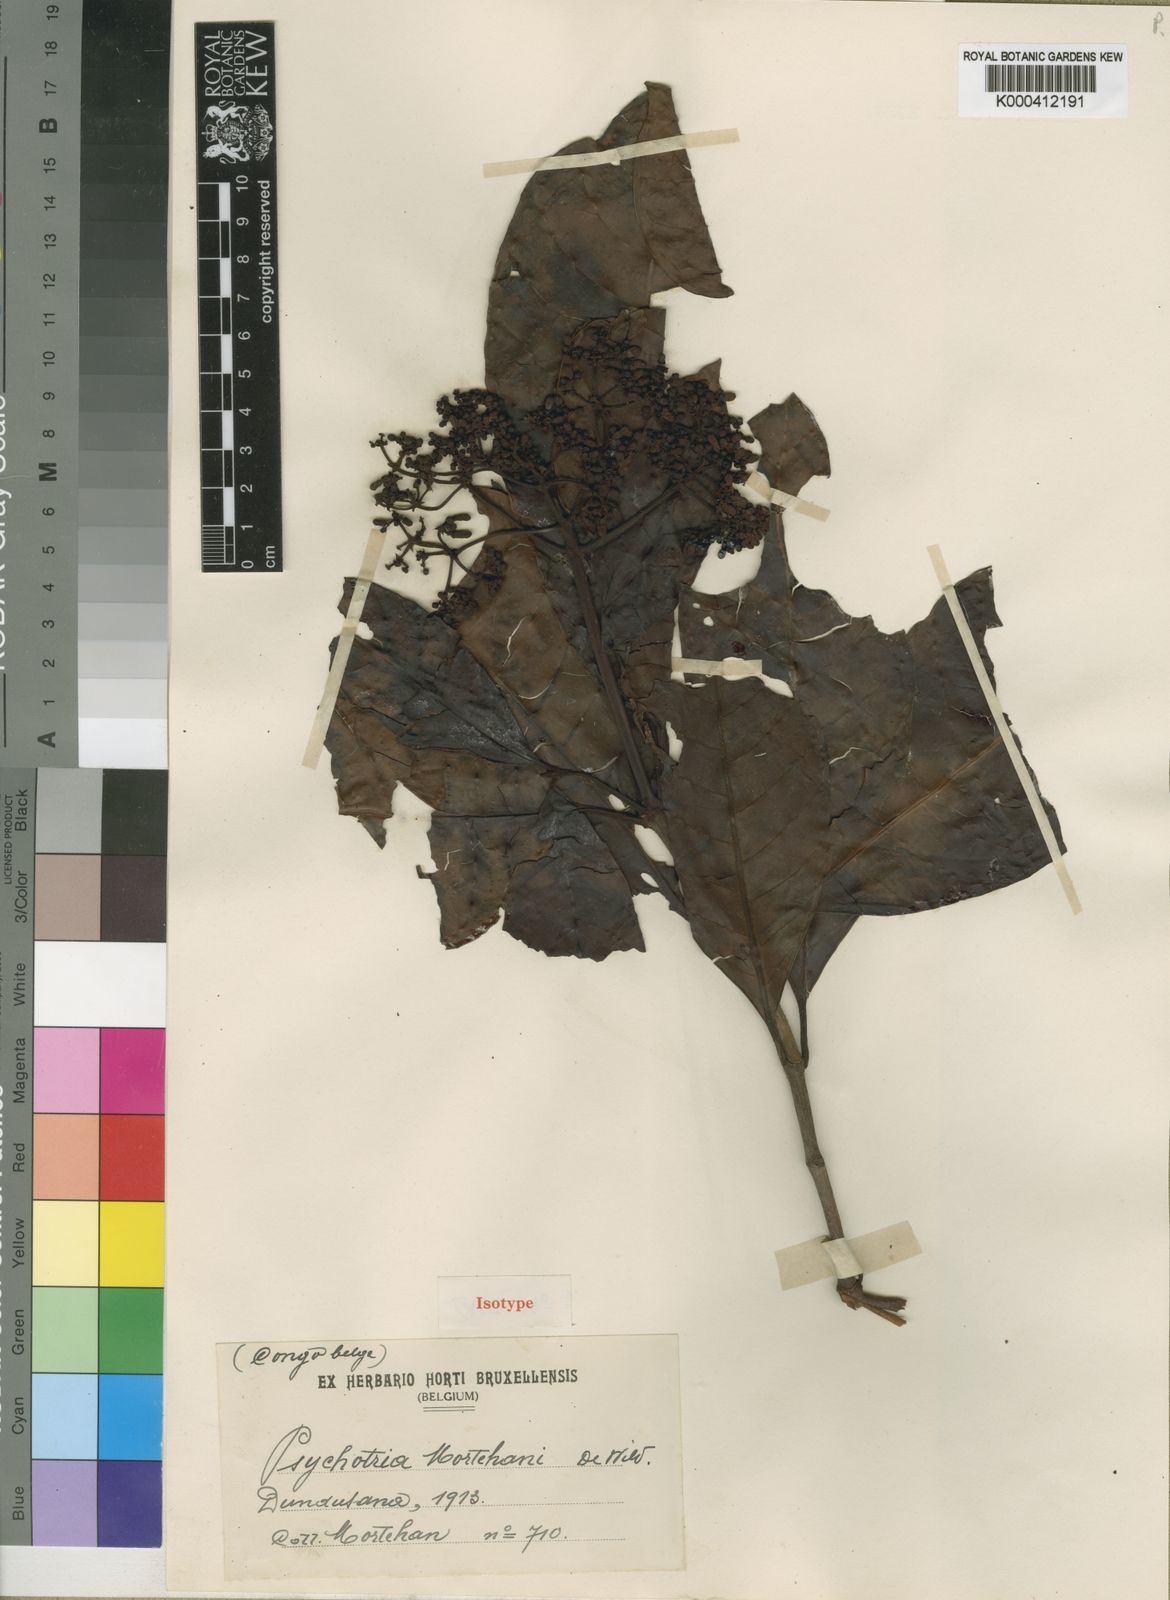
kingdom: Plantae
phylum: Tracheophyta
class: Magnoliopsida
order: Gentianales
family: Rubiaceae
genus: Psychotria
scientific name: Psychotria djumaensis
